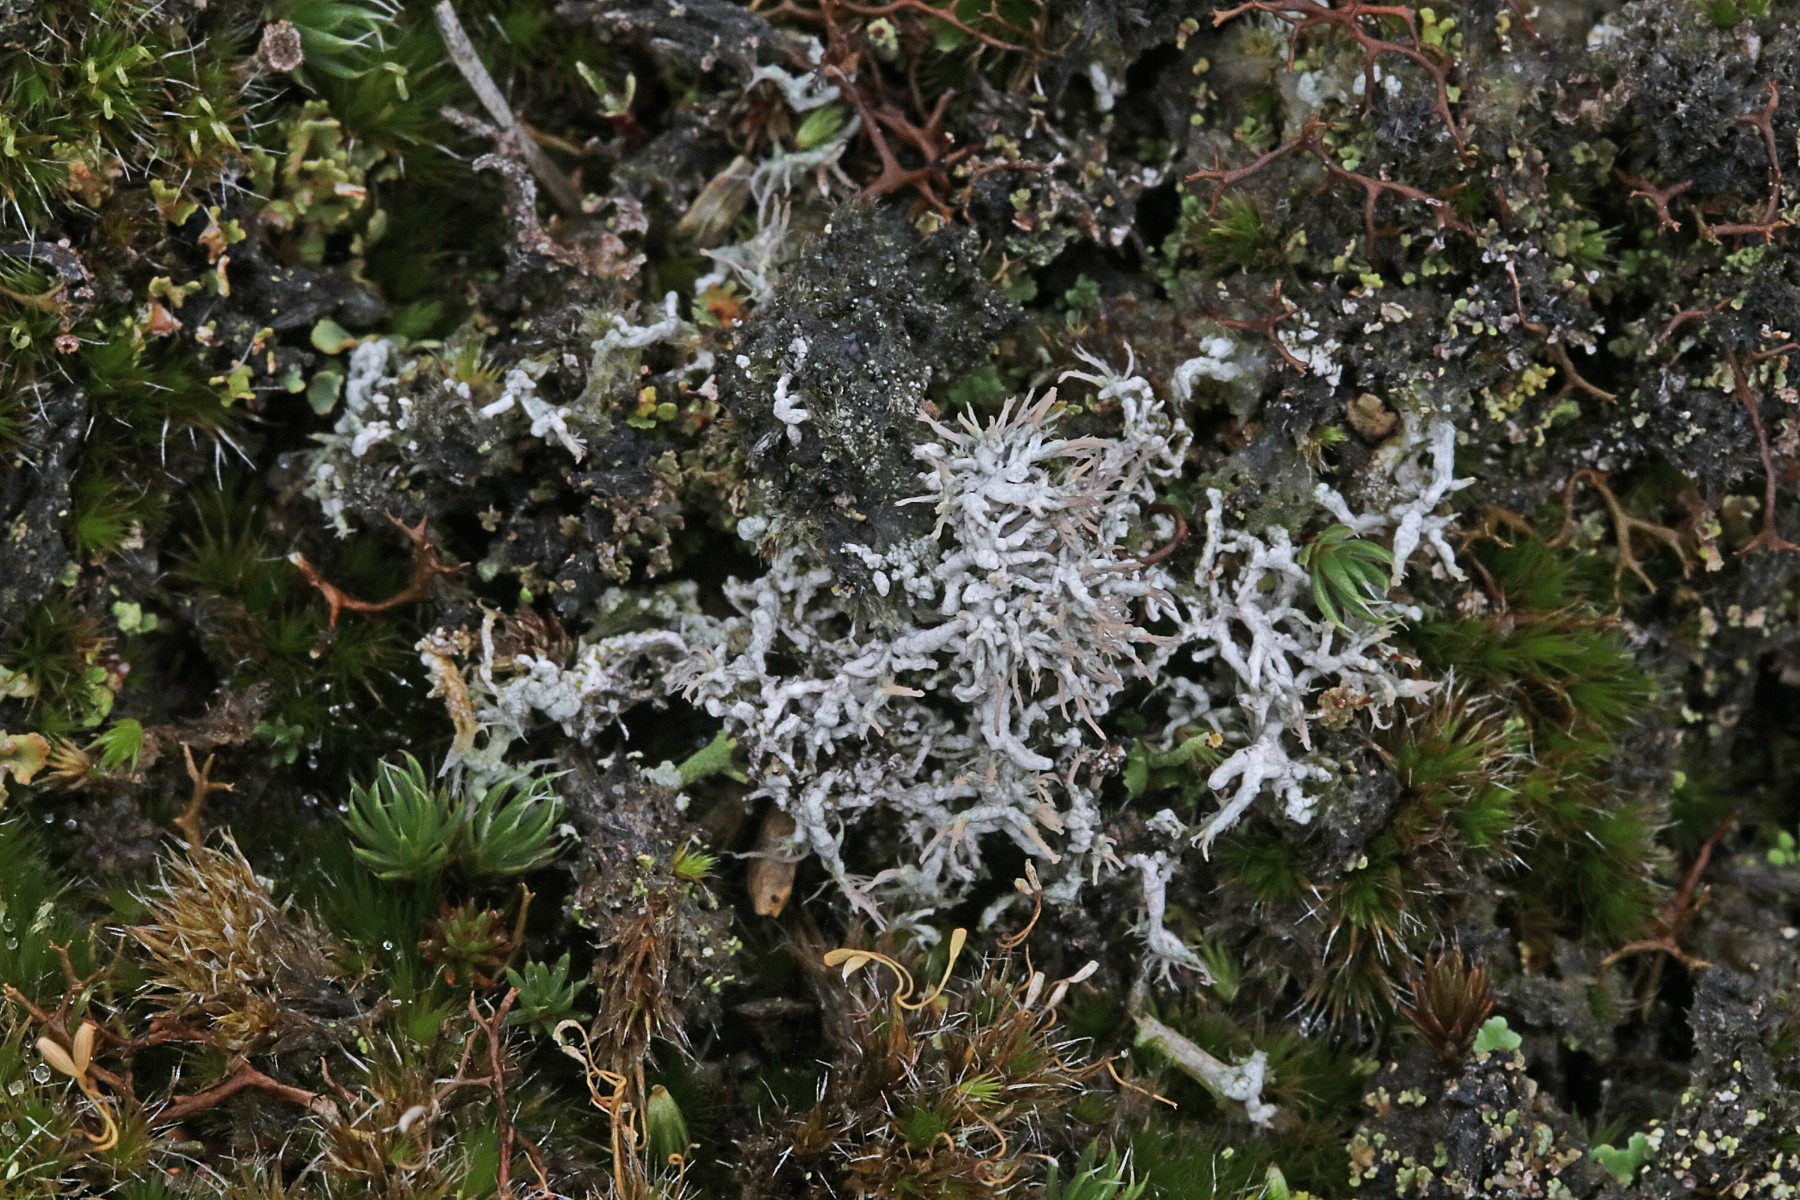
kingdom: Fungi
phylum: Ascomycota
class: Lecanoromycetes
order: Pertusariales
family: Ochrolechiaceae
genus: Ochrolechia
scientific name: Ochrolechia frigida
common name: fjeld-blegskivelav
